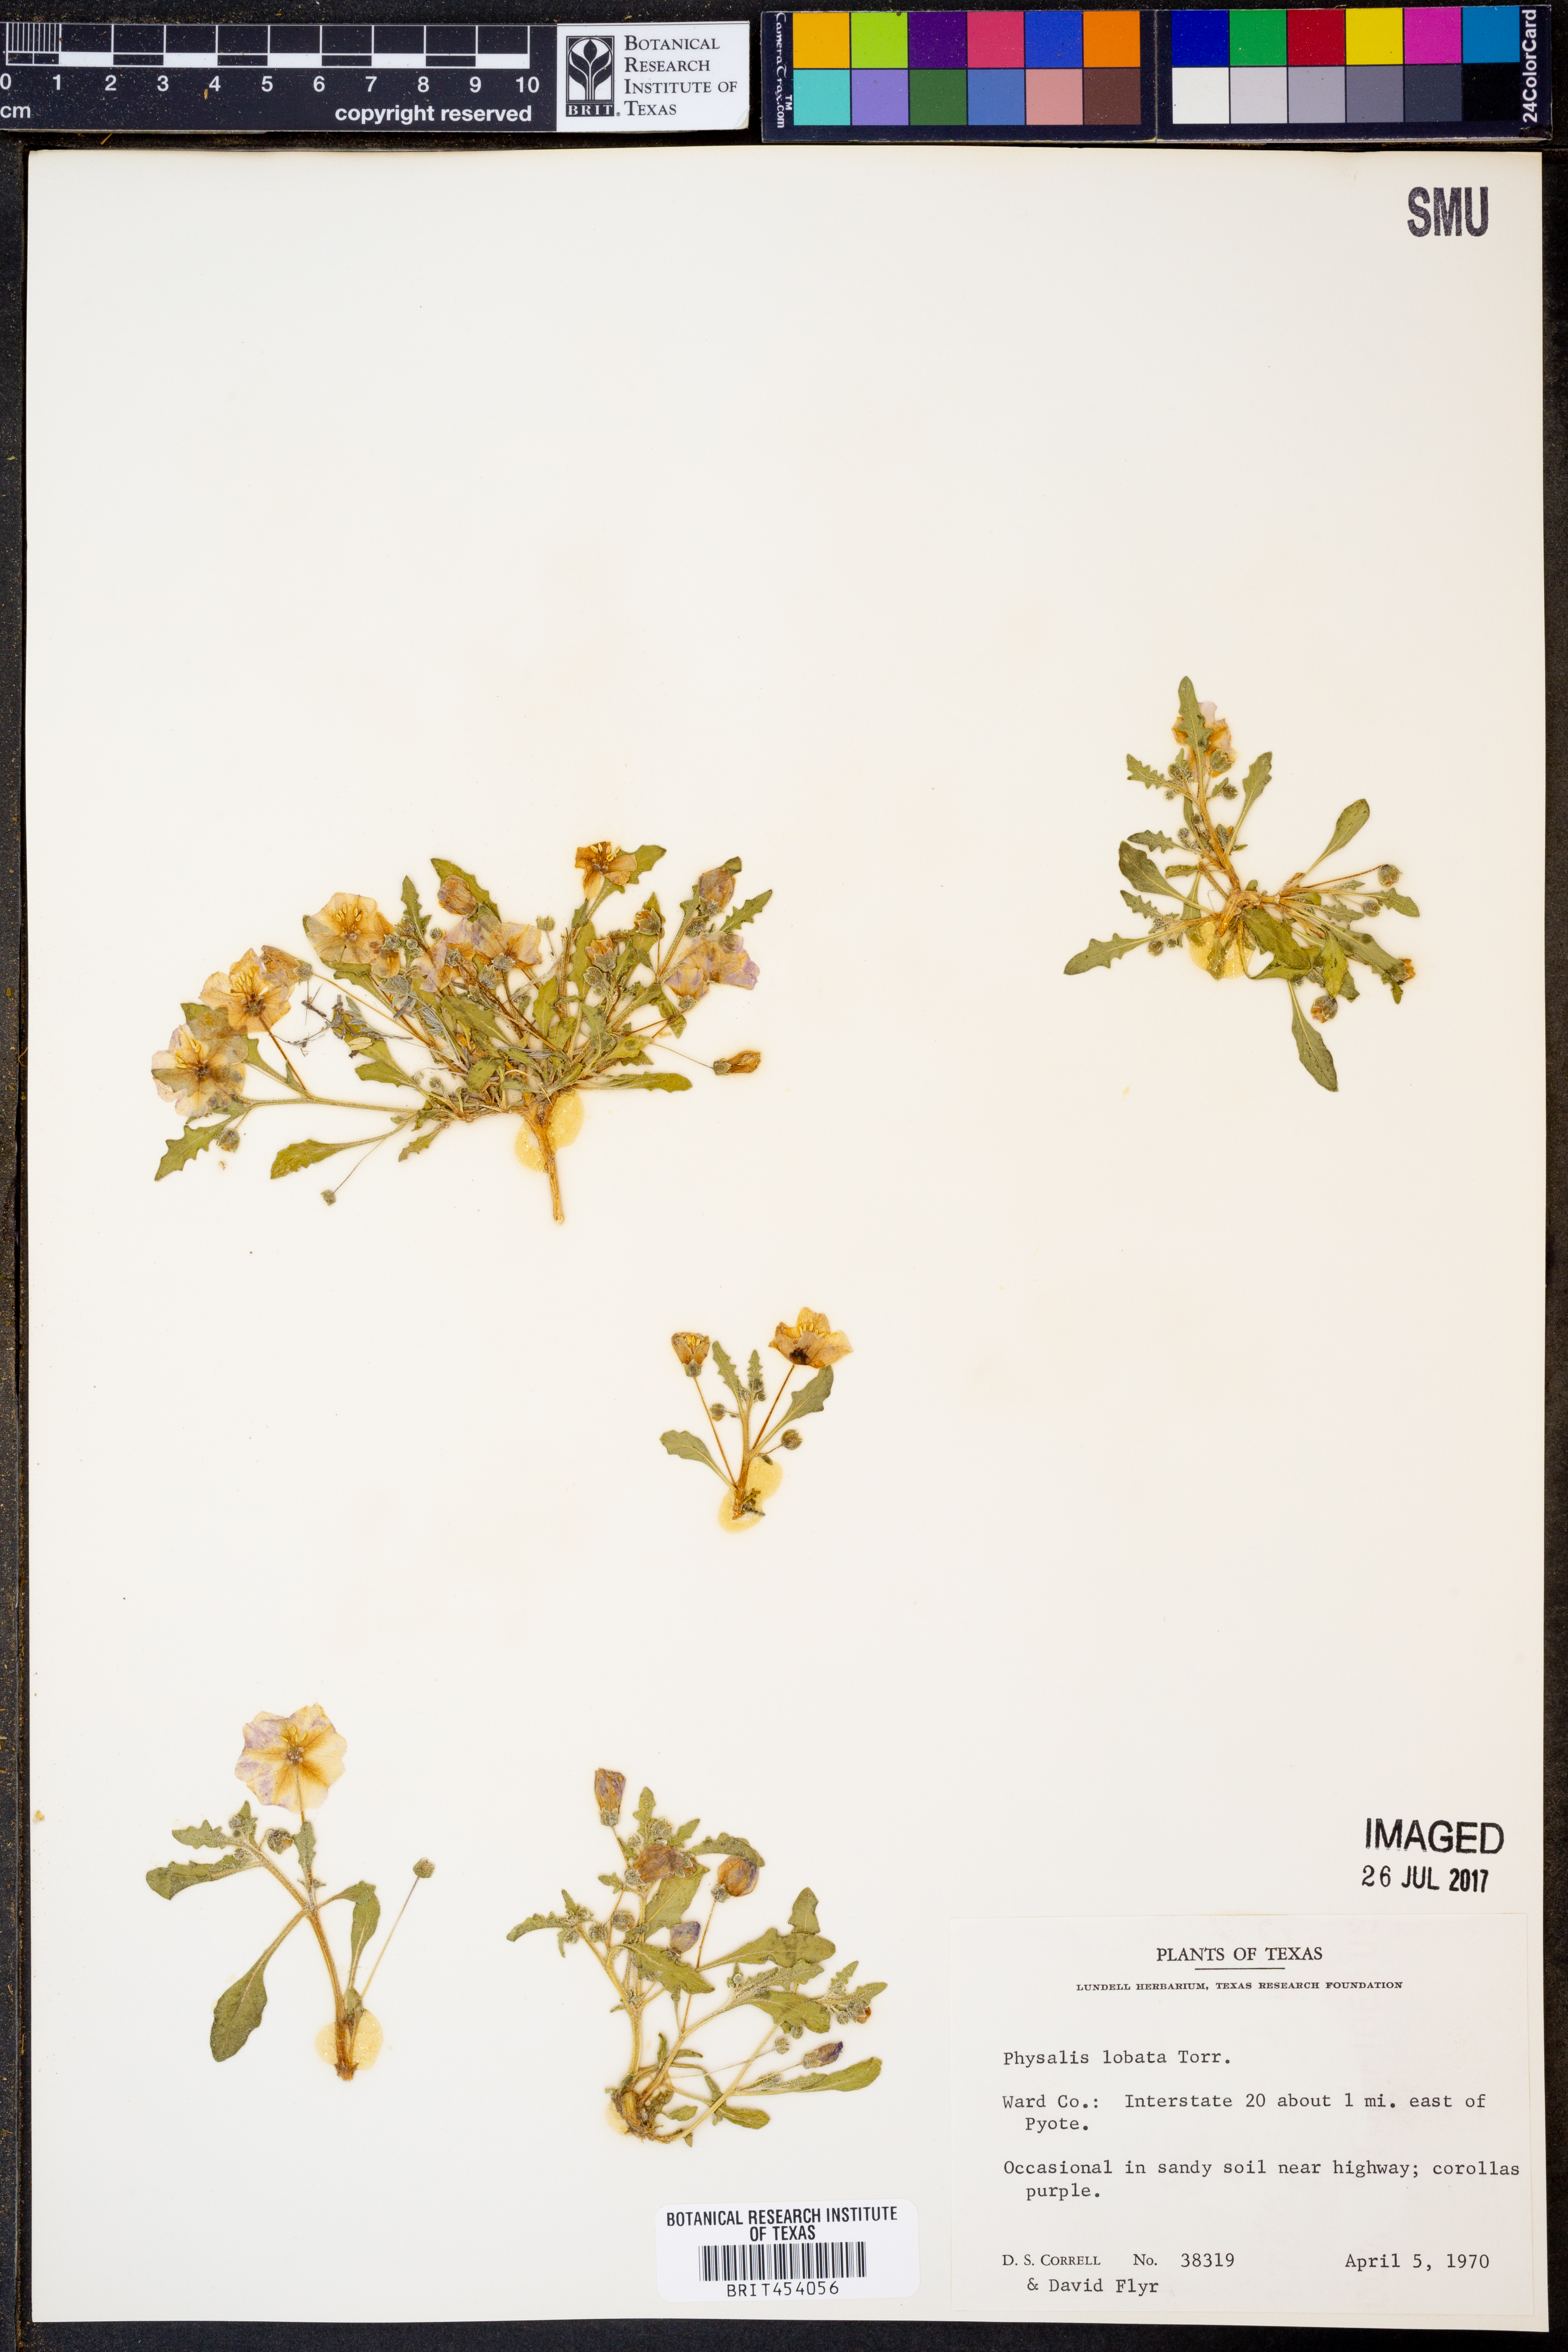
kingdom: Plantae
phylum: Tracheophyta
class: Magnoliopsida
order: Solanales
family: Solanaceae
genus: Quincula
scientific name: Quincula lobata
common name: Purple-ground-cherry
